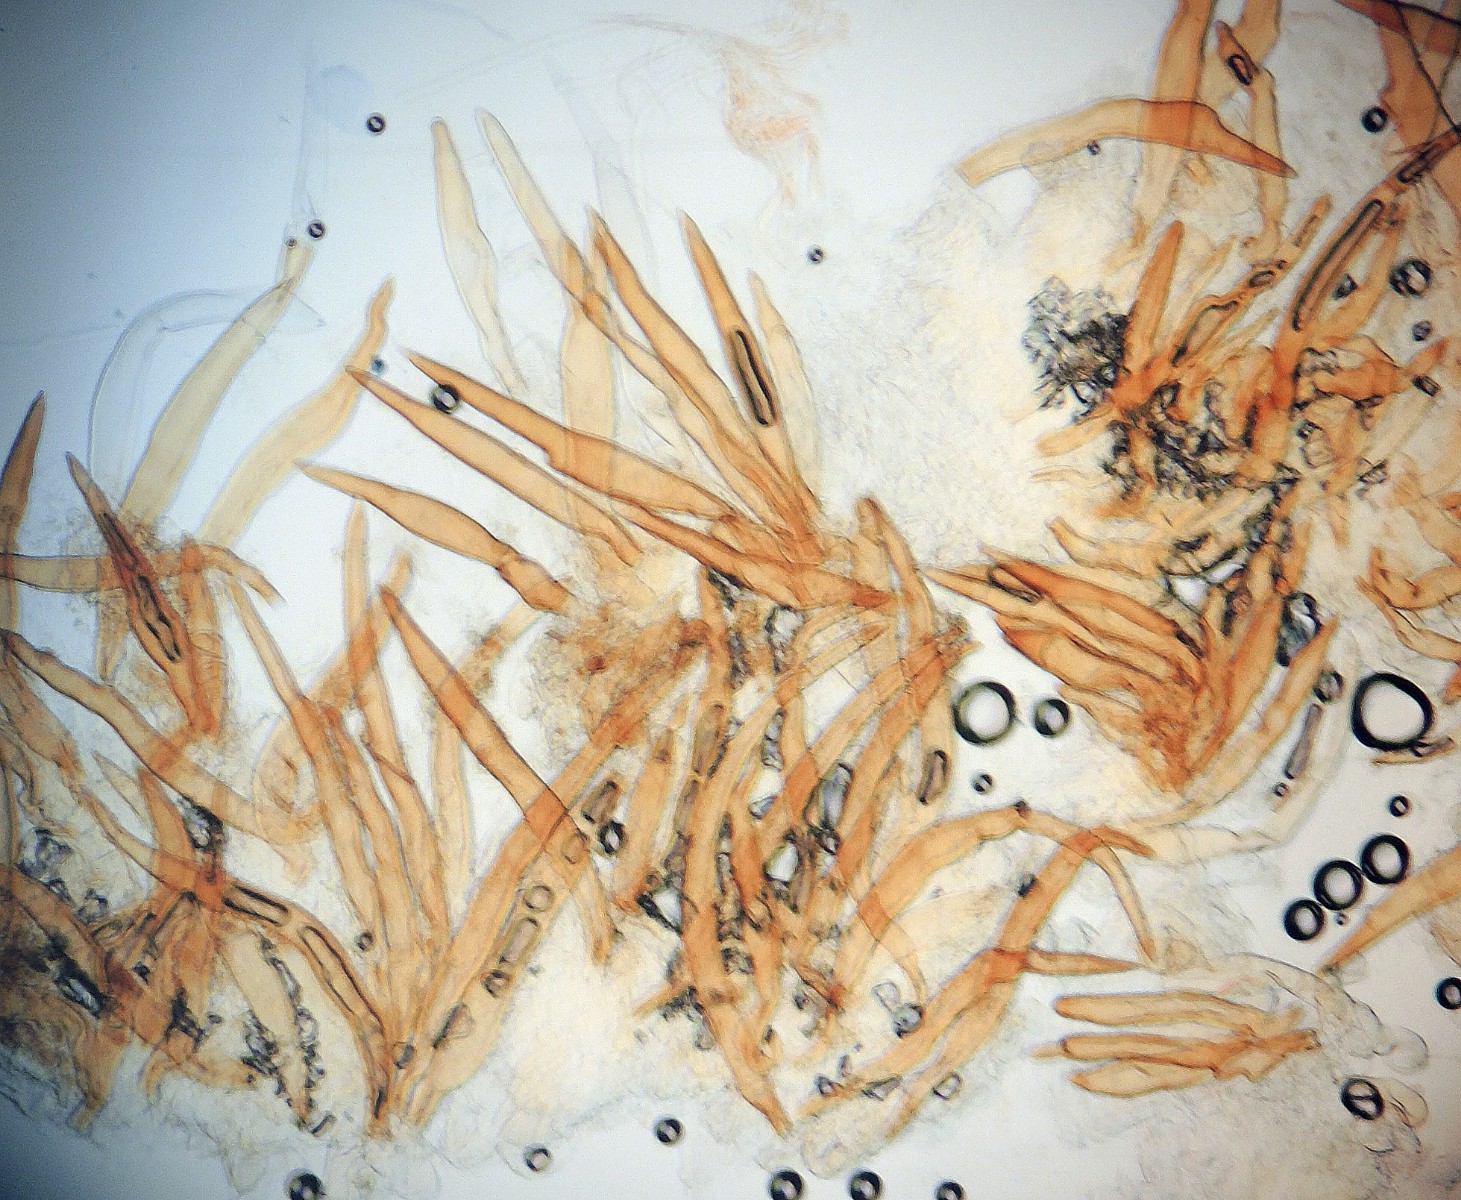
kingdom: Fungi
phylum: Ascomycota
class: Pezizomycetes
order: Pezizales
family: Pyronemataceae
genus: Scutellinia
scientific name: Scutellinia barlae
